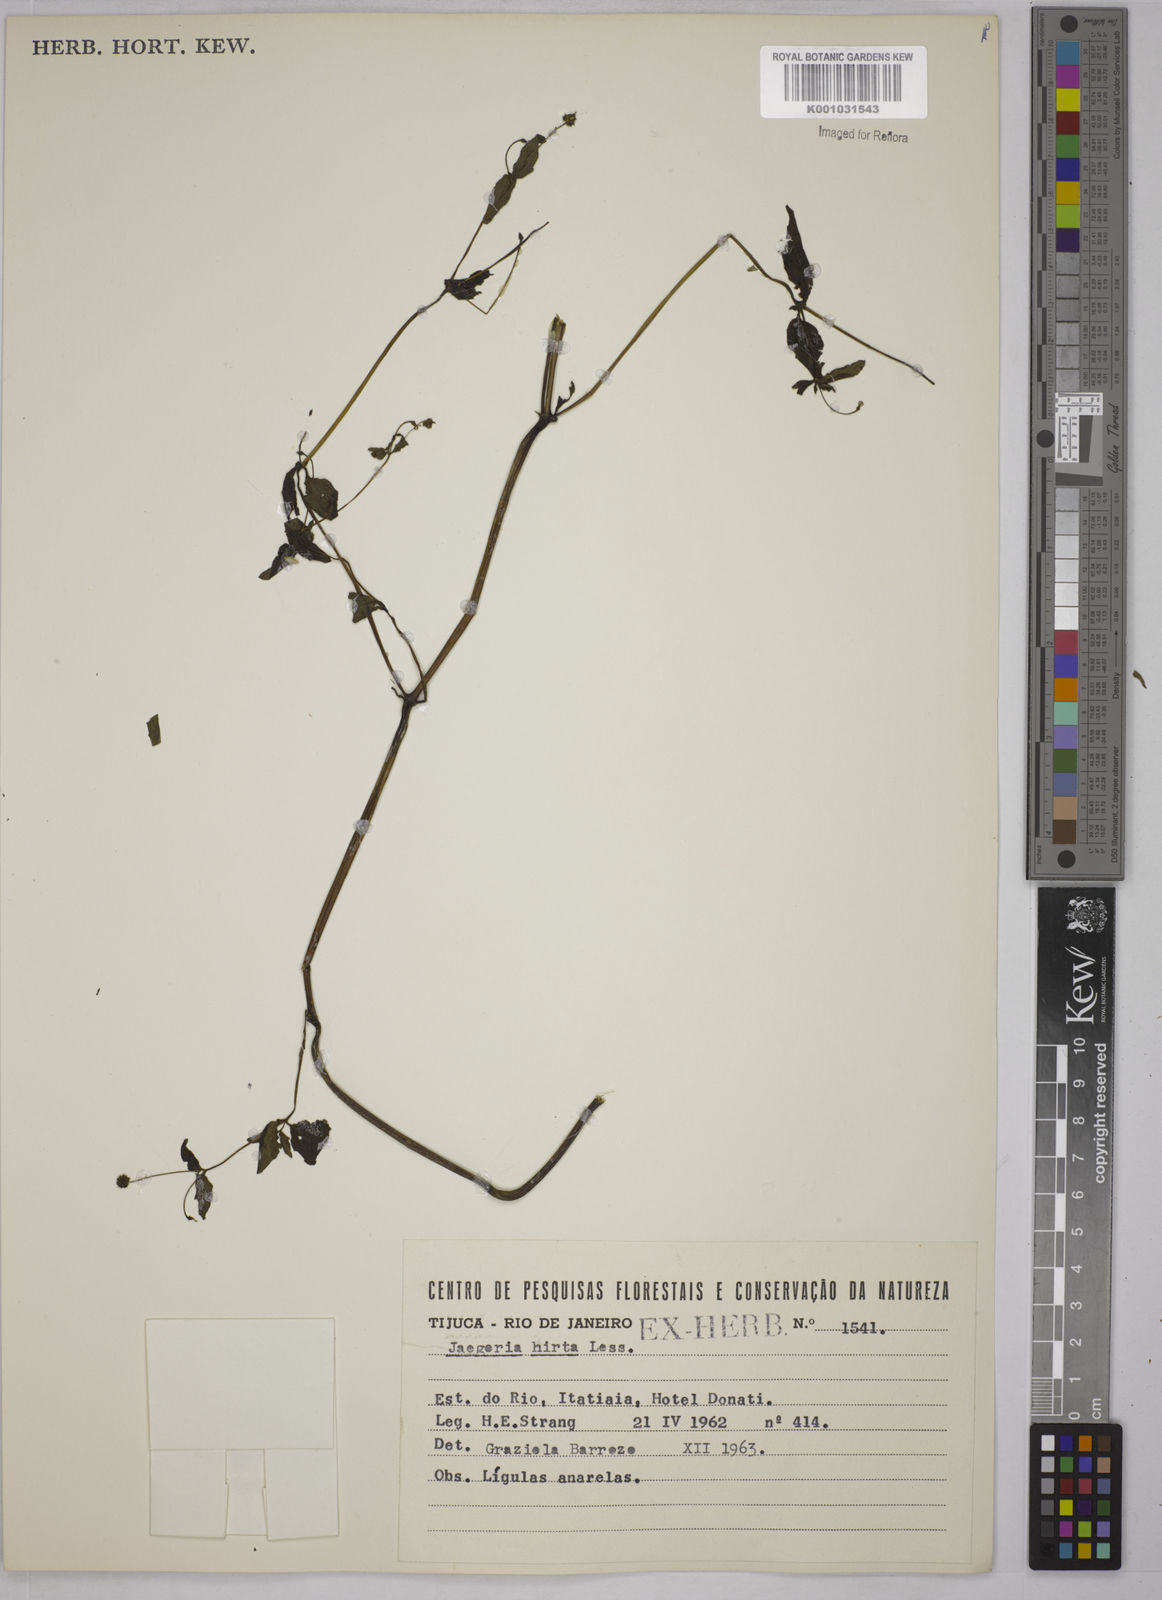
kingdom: Plantae
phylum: Tracheophyta
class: Magnoliopsida
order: Asterales
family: Asteraceae
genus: Jaegeria
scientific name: Jaegeria hirta
